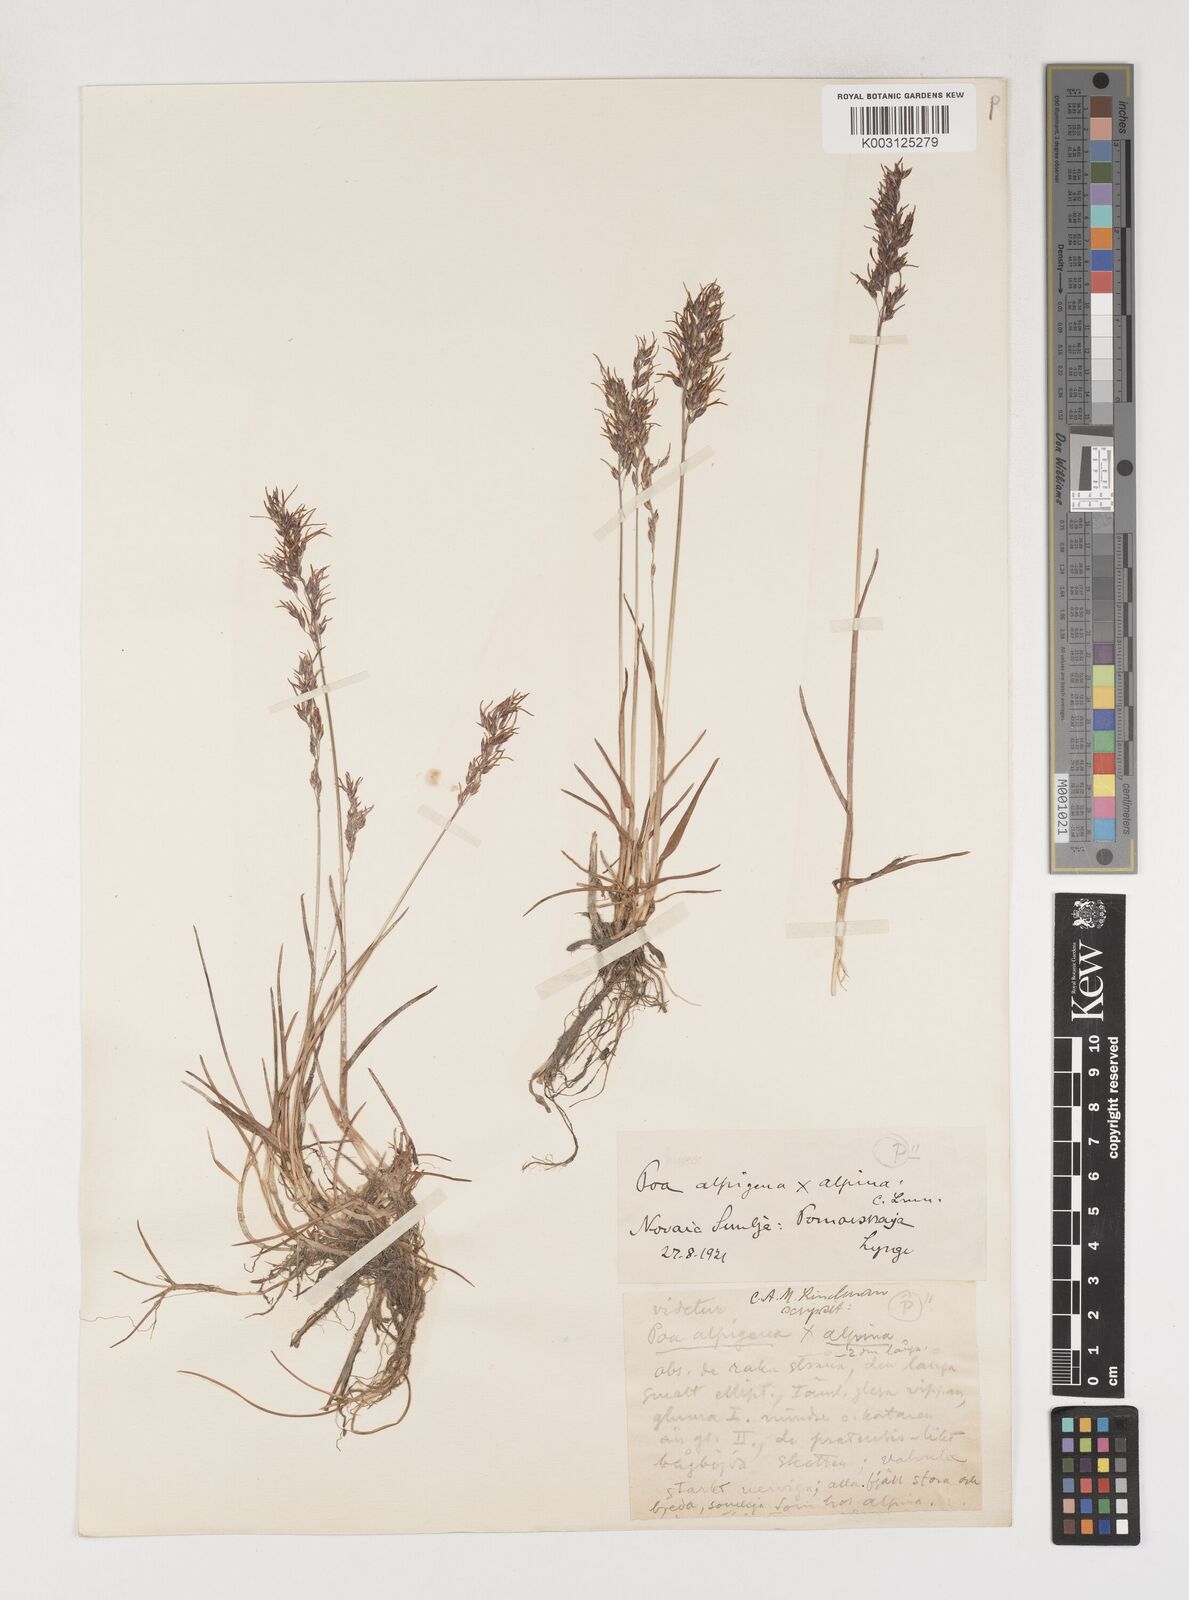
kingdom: Plantae
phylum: Tracheophyta
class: Liliopsida
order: Poales
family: Poaceae
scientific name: Poaceae
